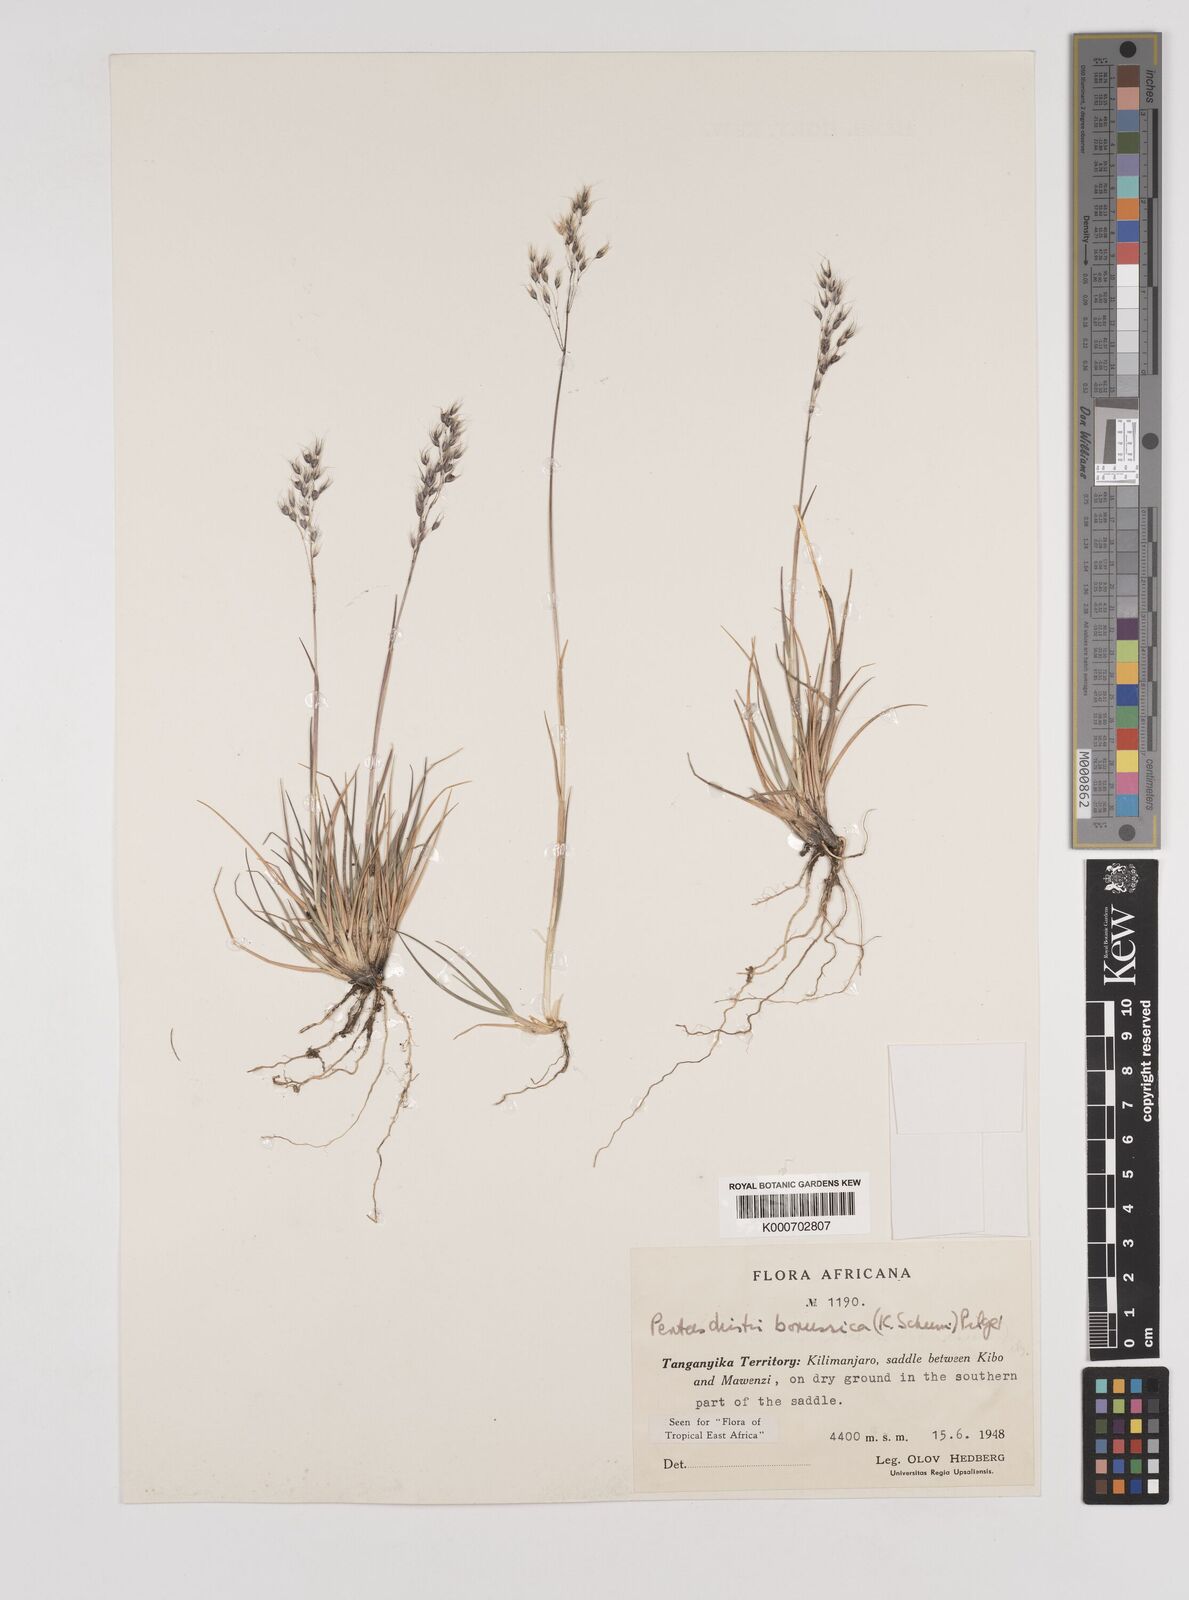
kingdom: Plantae
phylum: Tracheophyta
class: Liliopsida
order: Poales
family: Poaceae
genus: Pentameris
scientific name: Pentameris borussica
